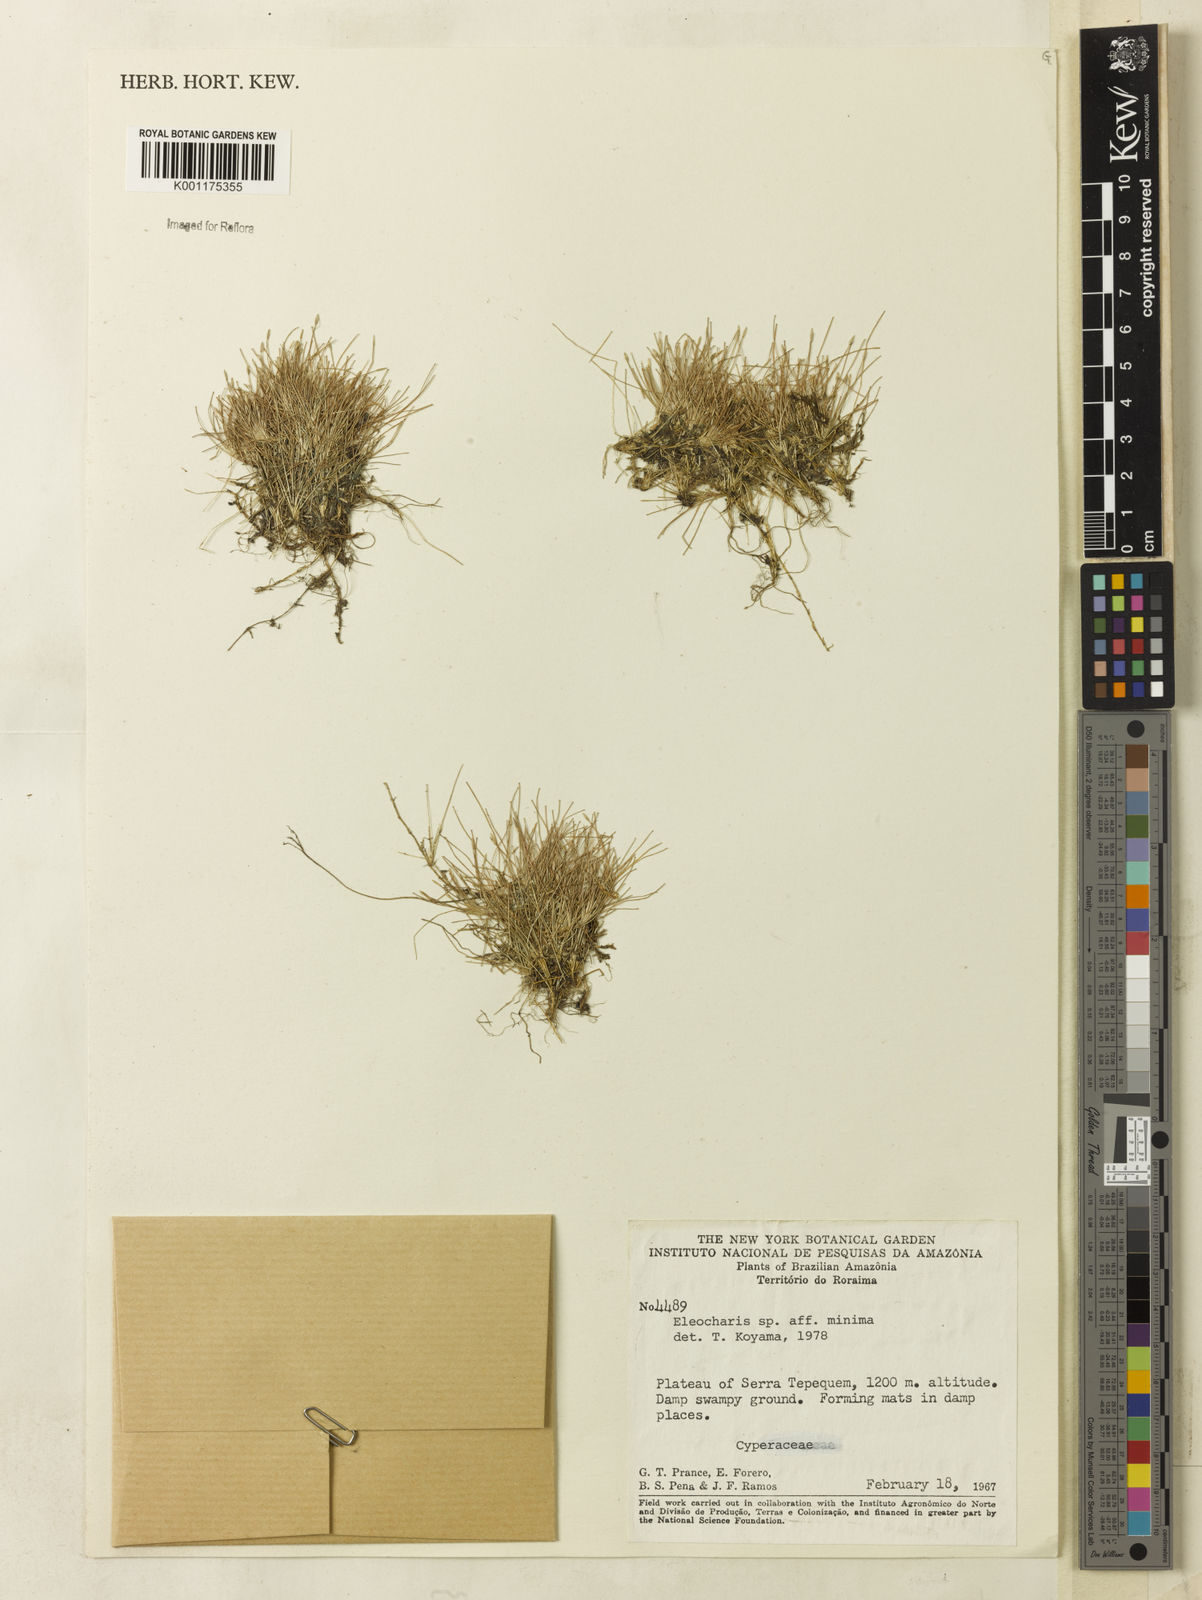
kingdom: Plantae
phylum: Tracheophyta
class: Liliopsida
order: Poales
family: Cyperaceae
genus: Eleocharis
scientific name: Eleocharis minima
